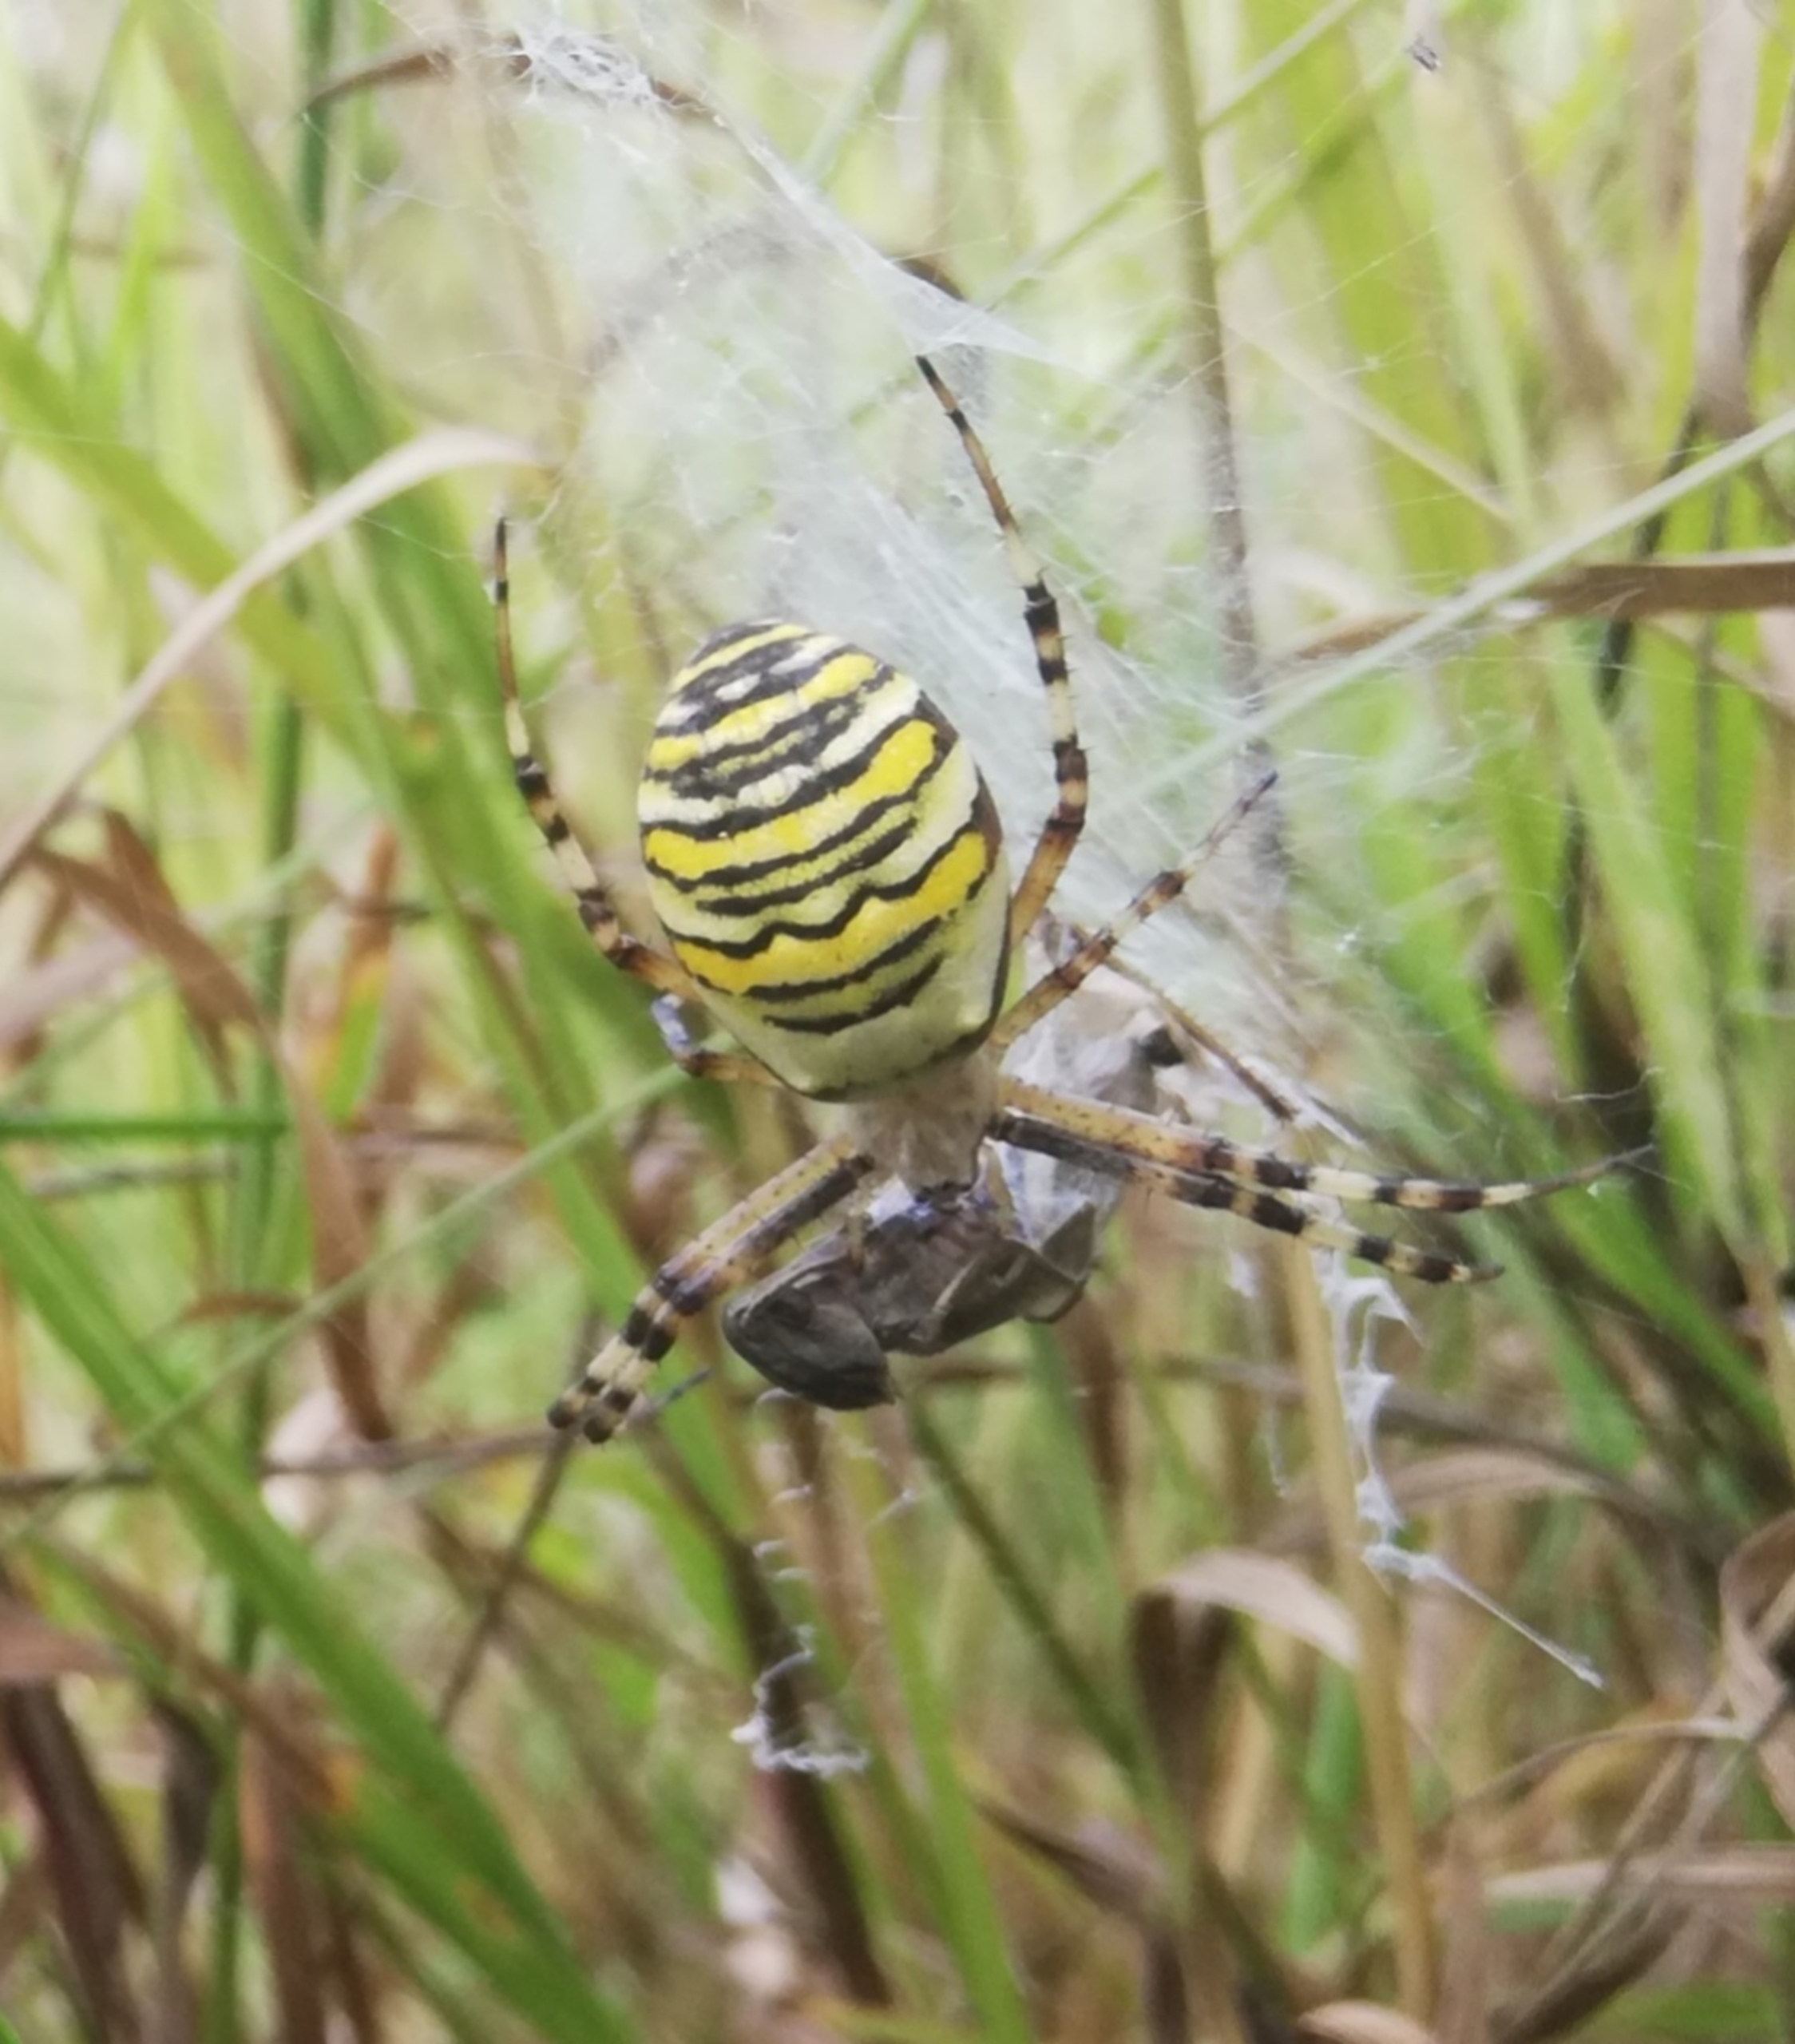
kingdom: Animalia
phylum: Arthropoda
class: Arachnida
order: Araneae
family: Araneidae
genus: Argiope
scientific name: Argiope bruennichi
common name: Hvepseedderkop
